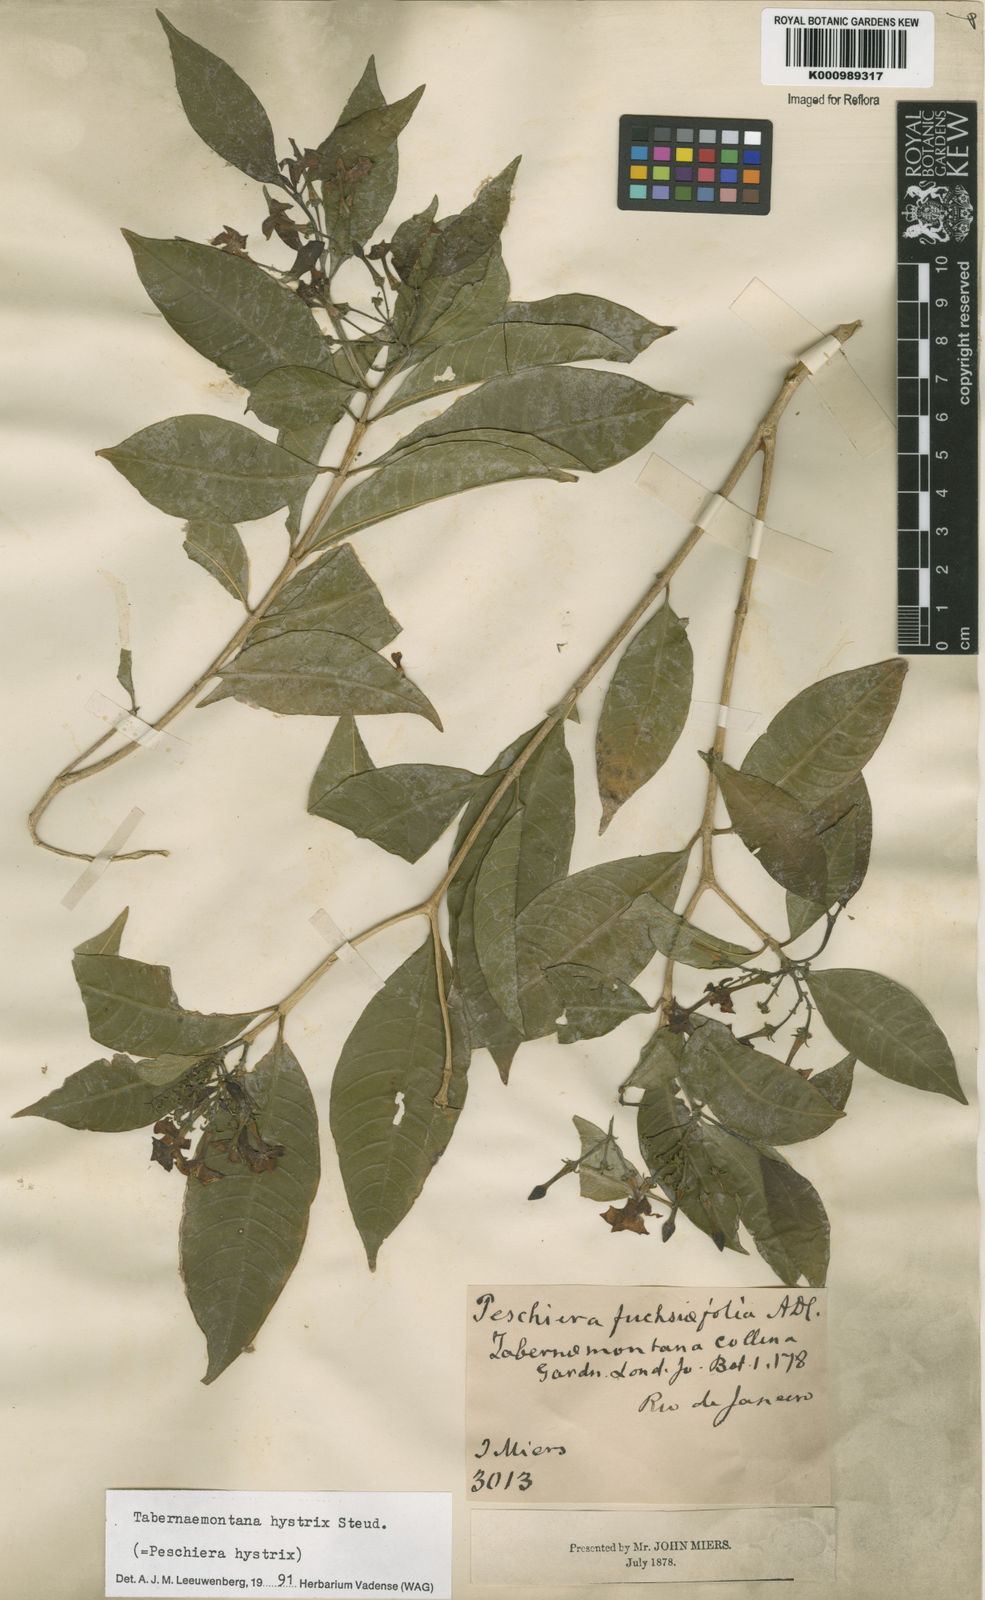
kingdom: Plantae
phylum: Tracheophyta
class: Magnoliopsida
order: Gentianales
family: Apocynaceae
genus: Tabernaemontana
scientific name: Tabernaemontana hystrix
